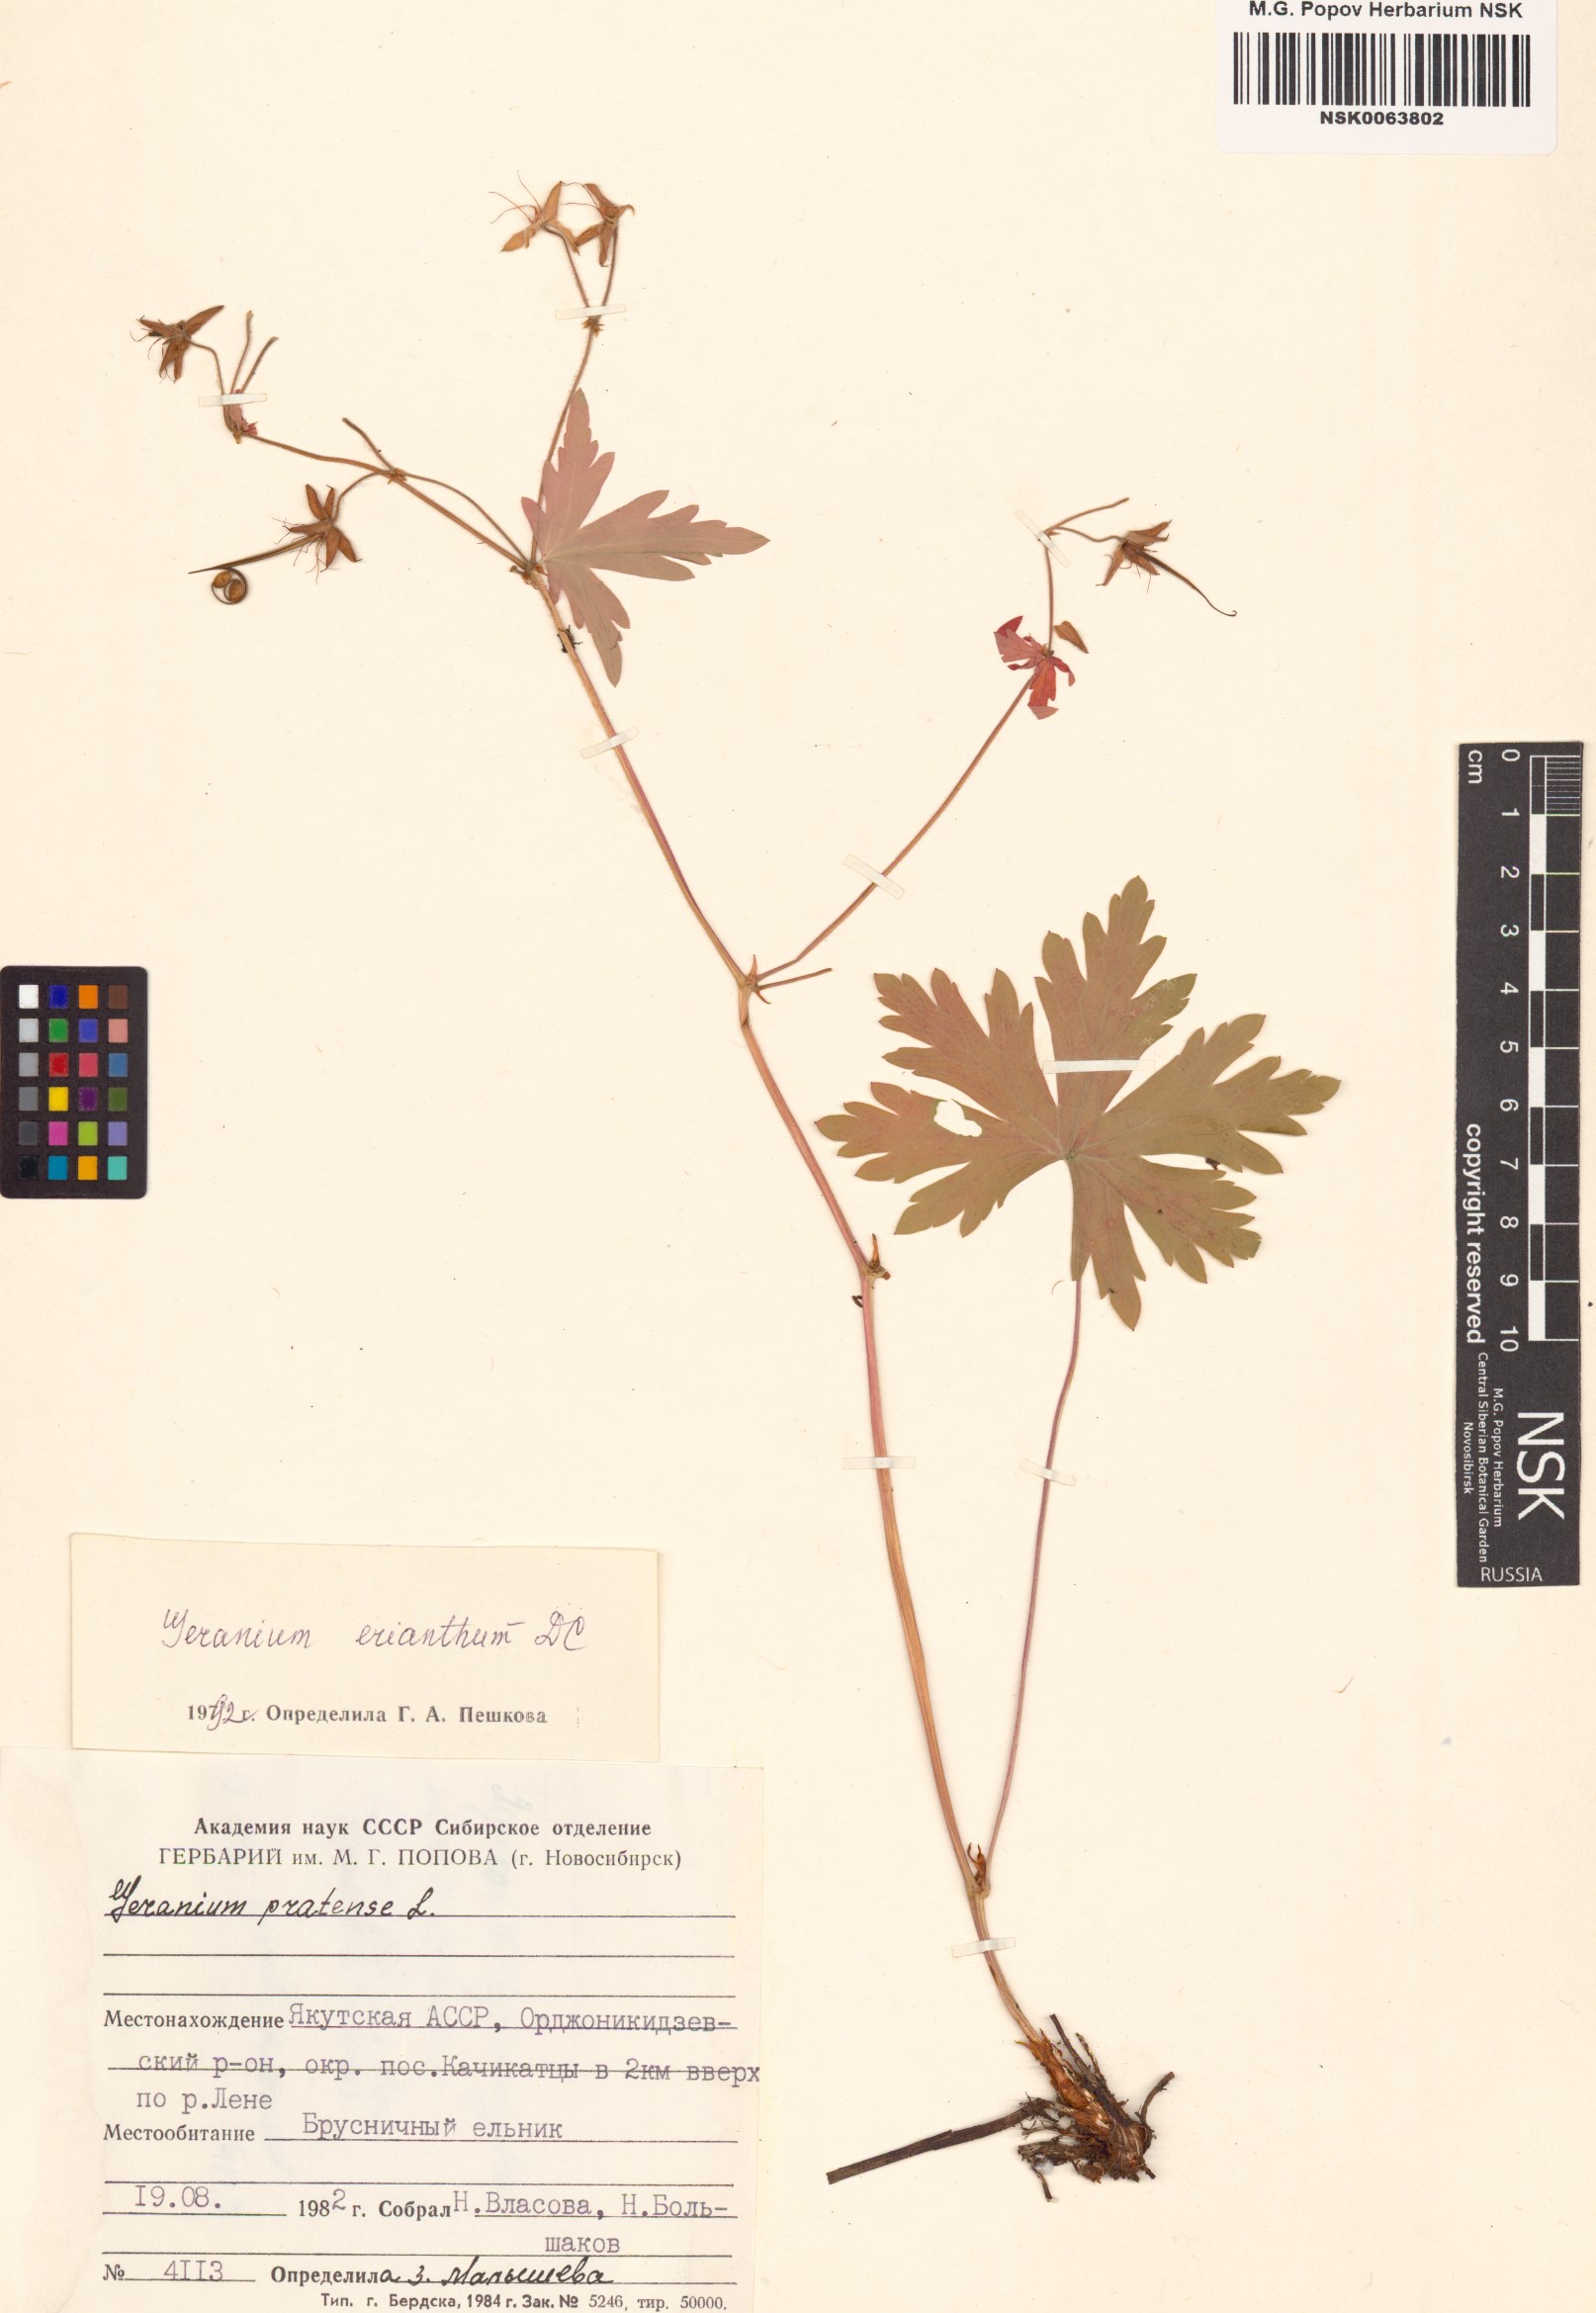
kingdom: Plantae
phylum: Tracheophyta
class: Magnoliopsida
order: Geraniales
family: Geraniaceae
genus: Geranium
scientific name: Geranium erianthum
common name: Northern crane's-bill
